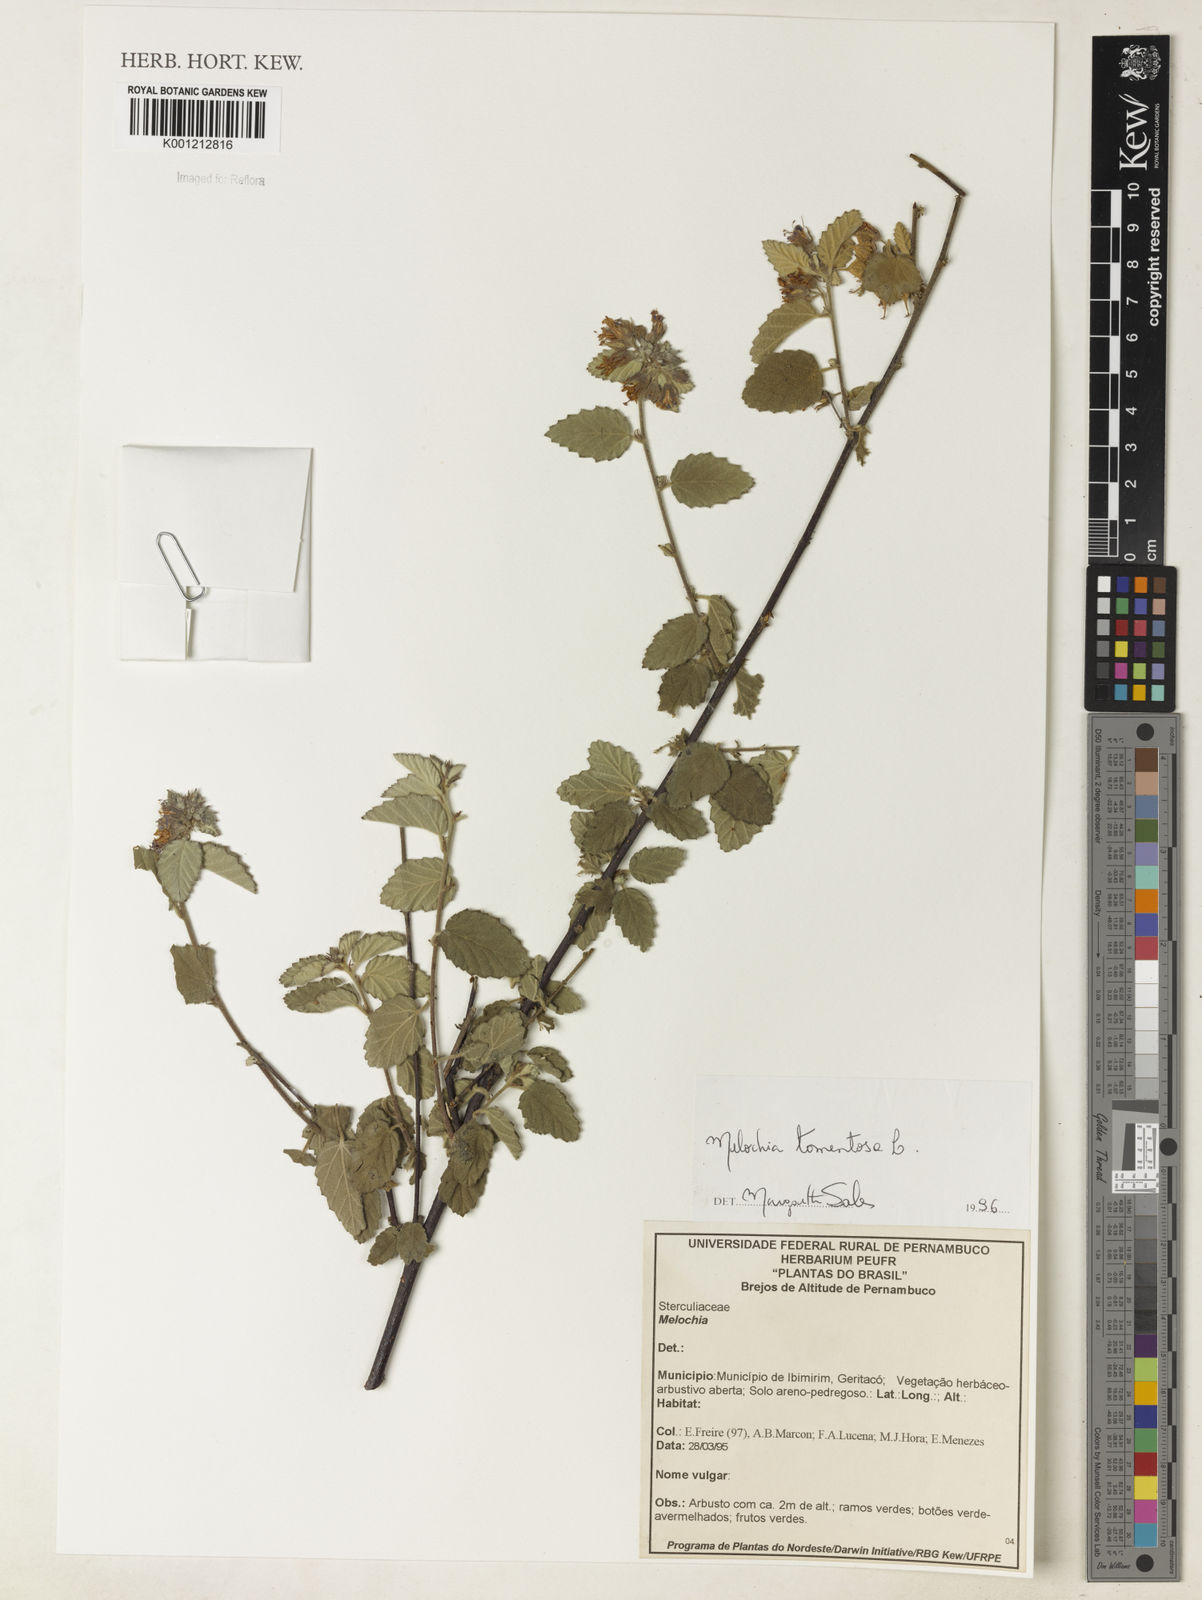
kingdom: Plantae
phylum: Tracheophyta
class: Magnoliopsida
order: Malvales
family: Malvaceae
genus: Melochia
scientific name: Melochia tomentosa
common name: Black torch
